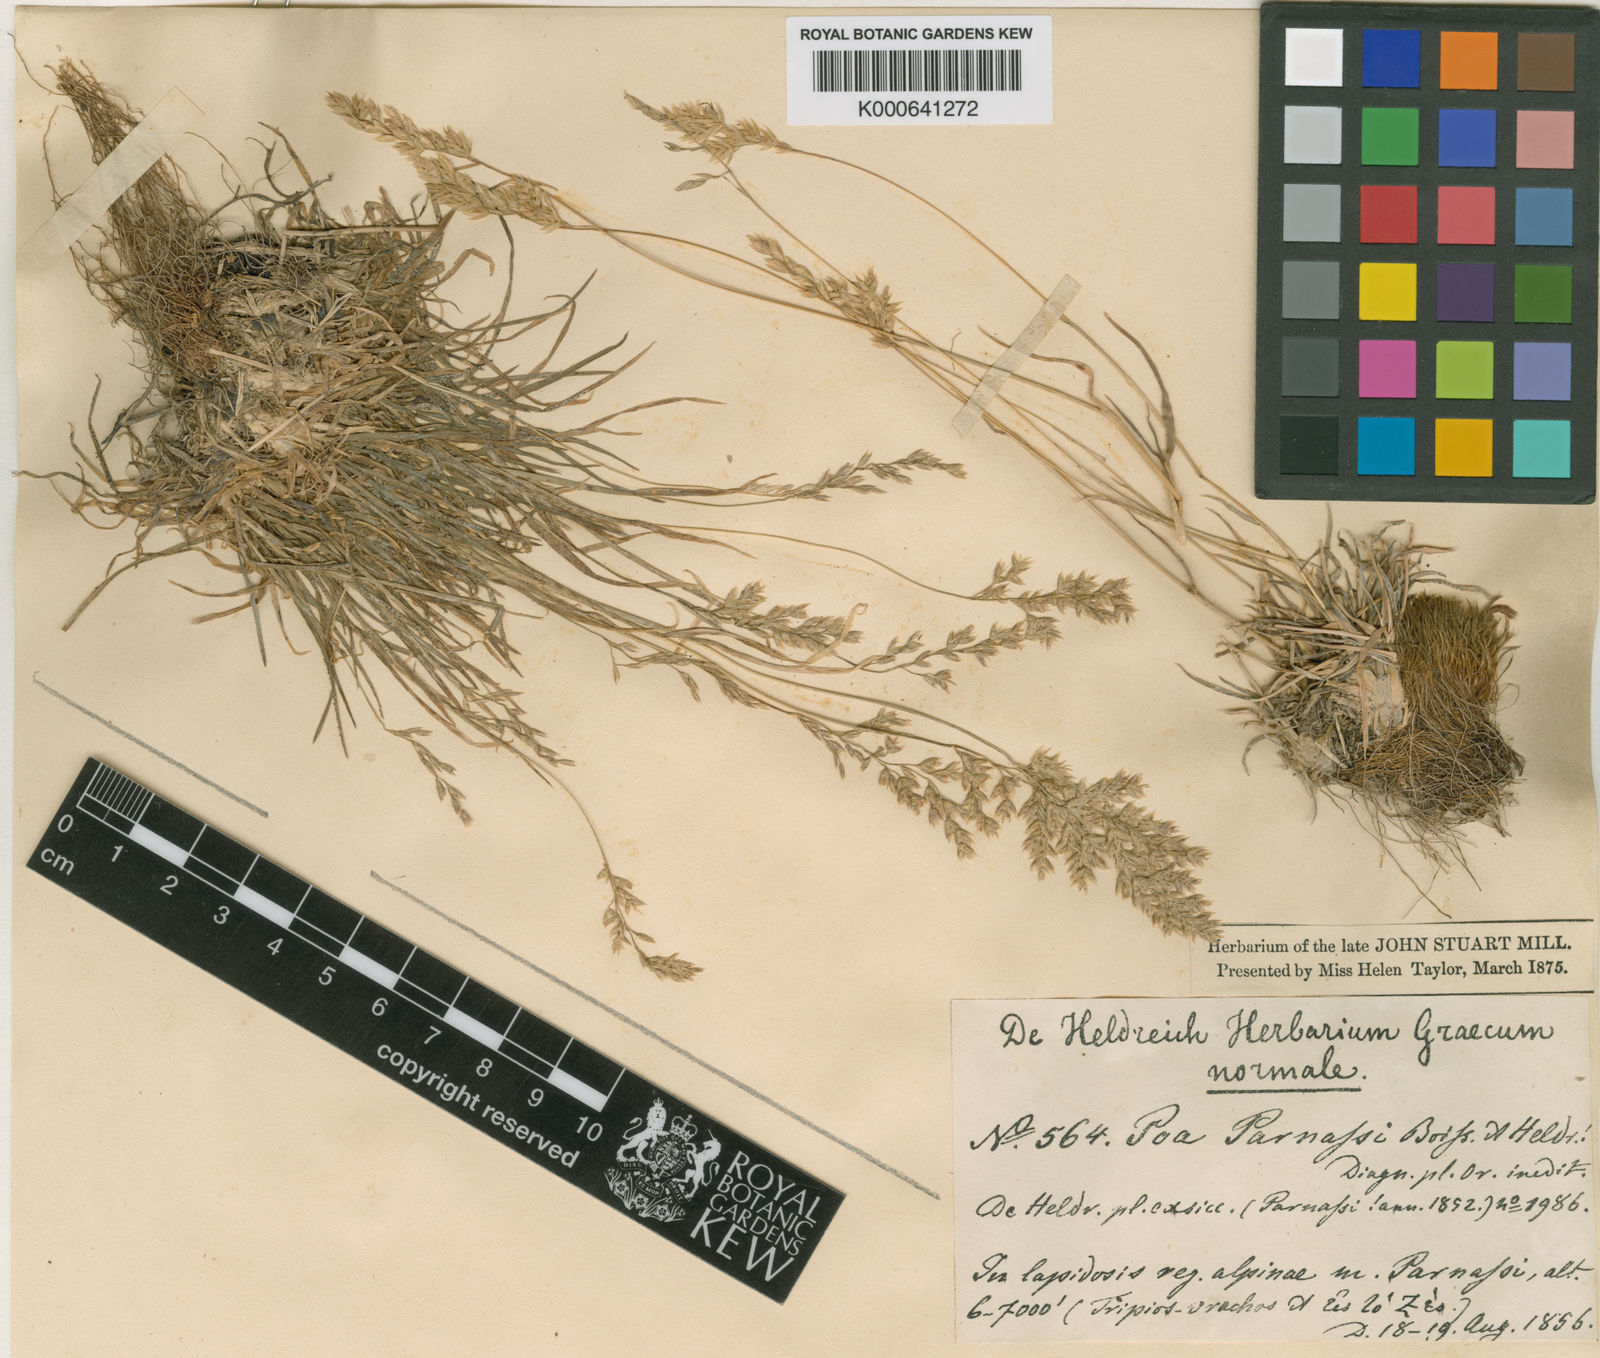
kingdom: Plantae
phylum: Tracheophyta
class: Liliopsida
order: Poales
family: Poaceae
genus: Briza
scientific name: Briza media
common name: Quaking grass
